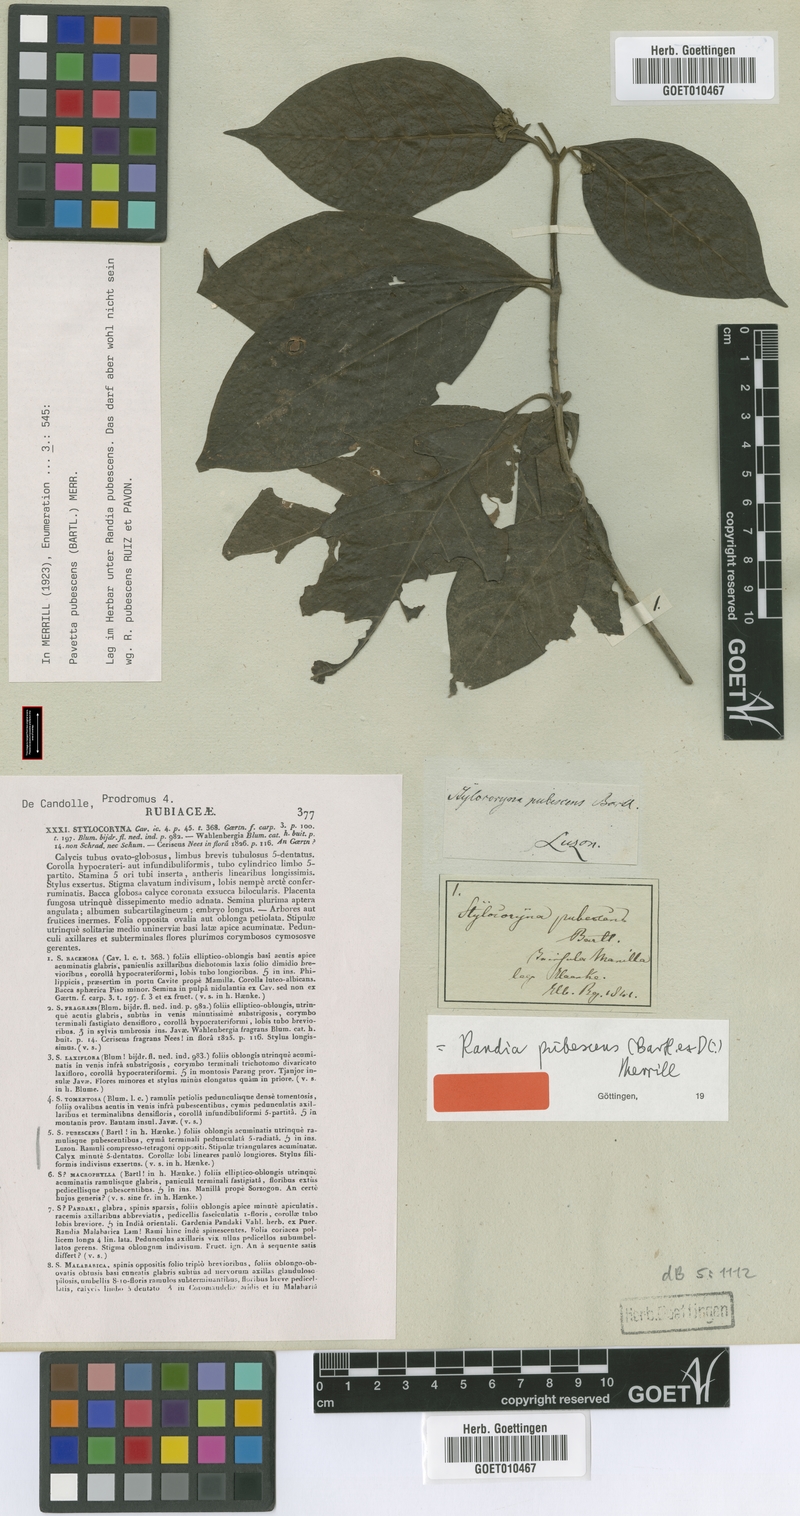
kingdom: Plantae
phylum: Tracheophyta
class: Magnoliopsida
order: Gentianales
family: Rubiaceae
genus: Randia
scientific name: Randia obovata
